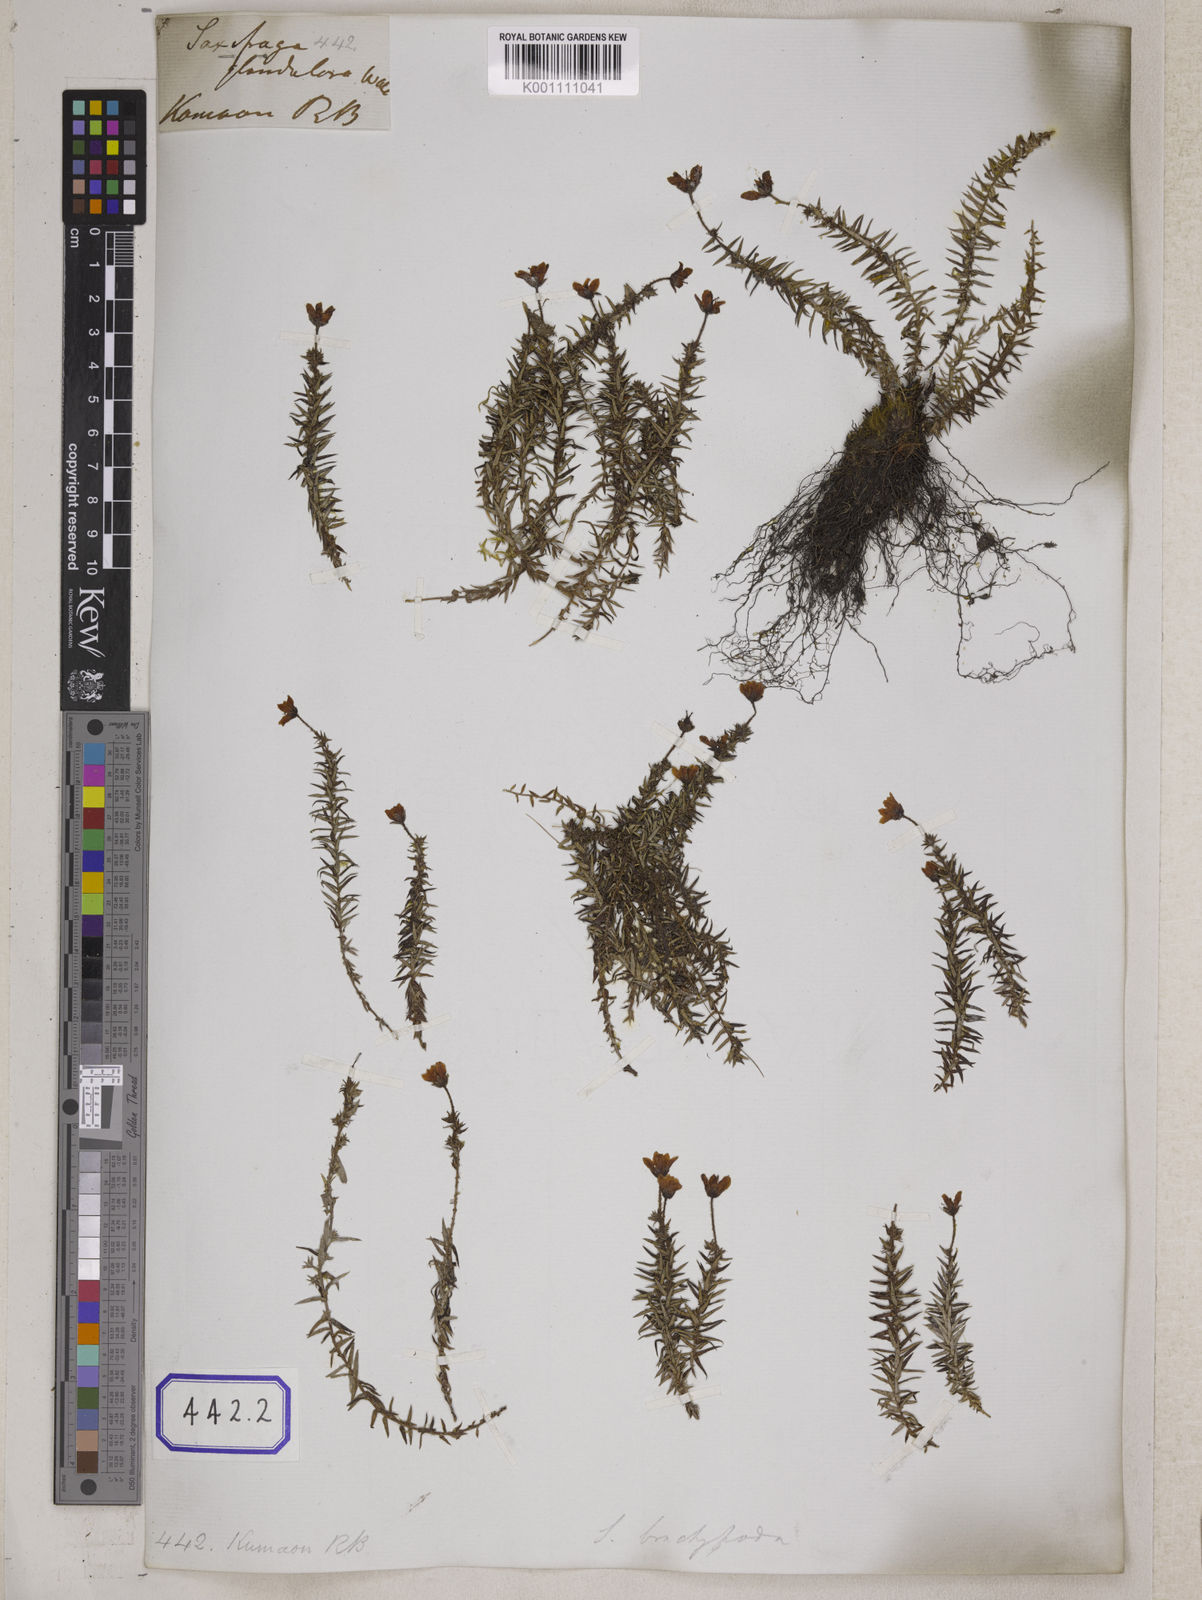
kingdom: Plantae
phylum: Tracheophyta
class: Magnoliopsida
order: Saxifragales
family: Saxifragaceae
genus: Saxifraga
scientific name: Saxifraga brachypoda
